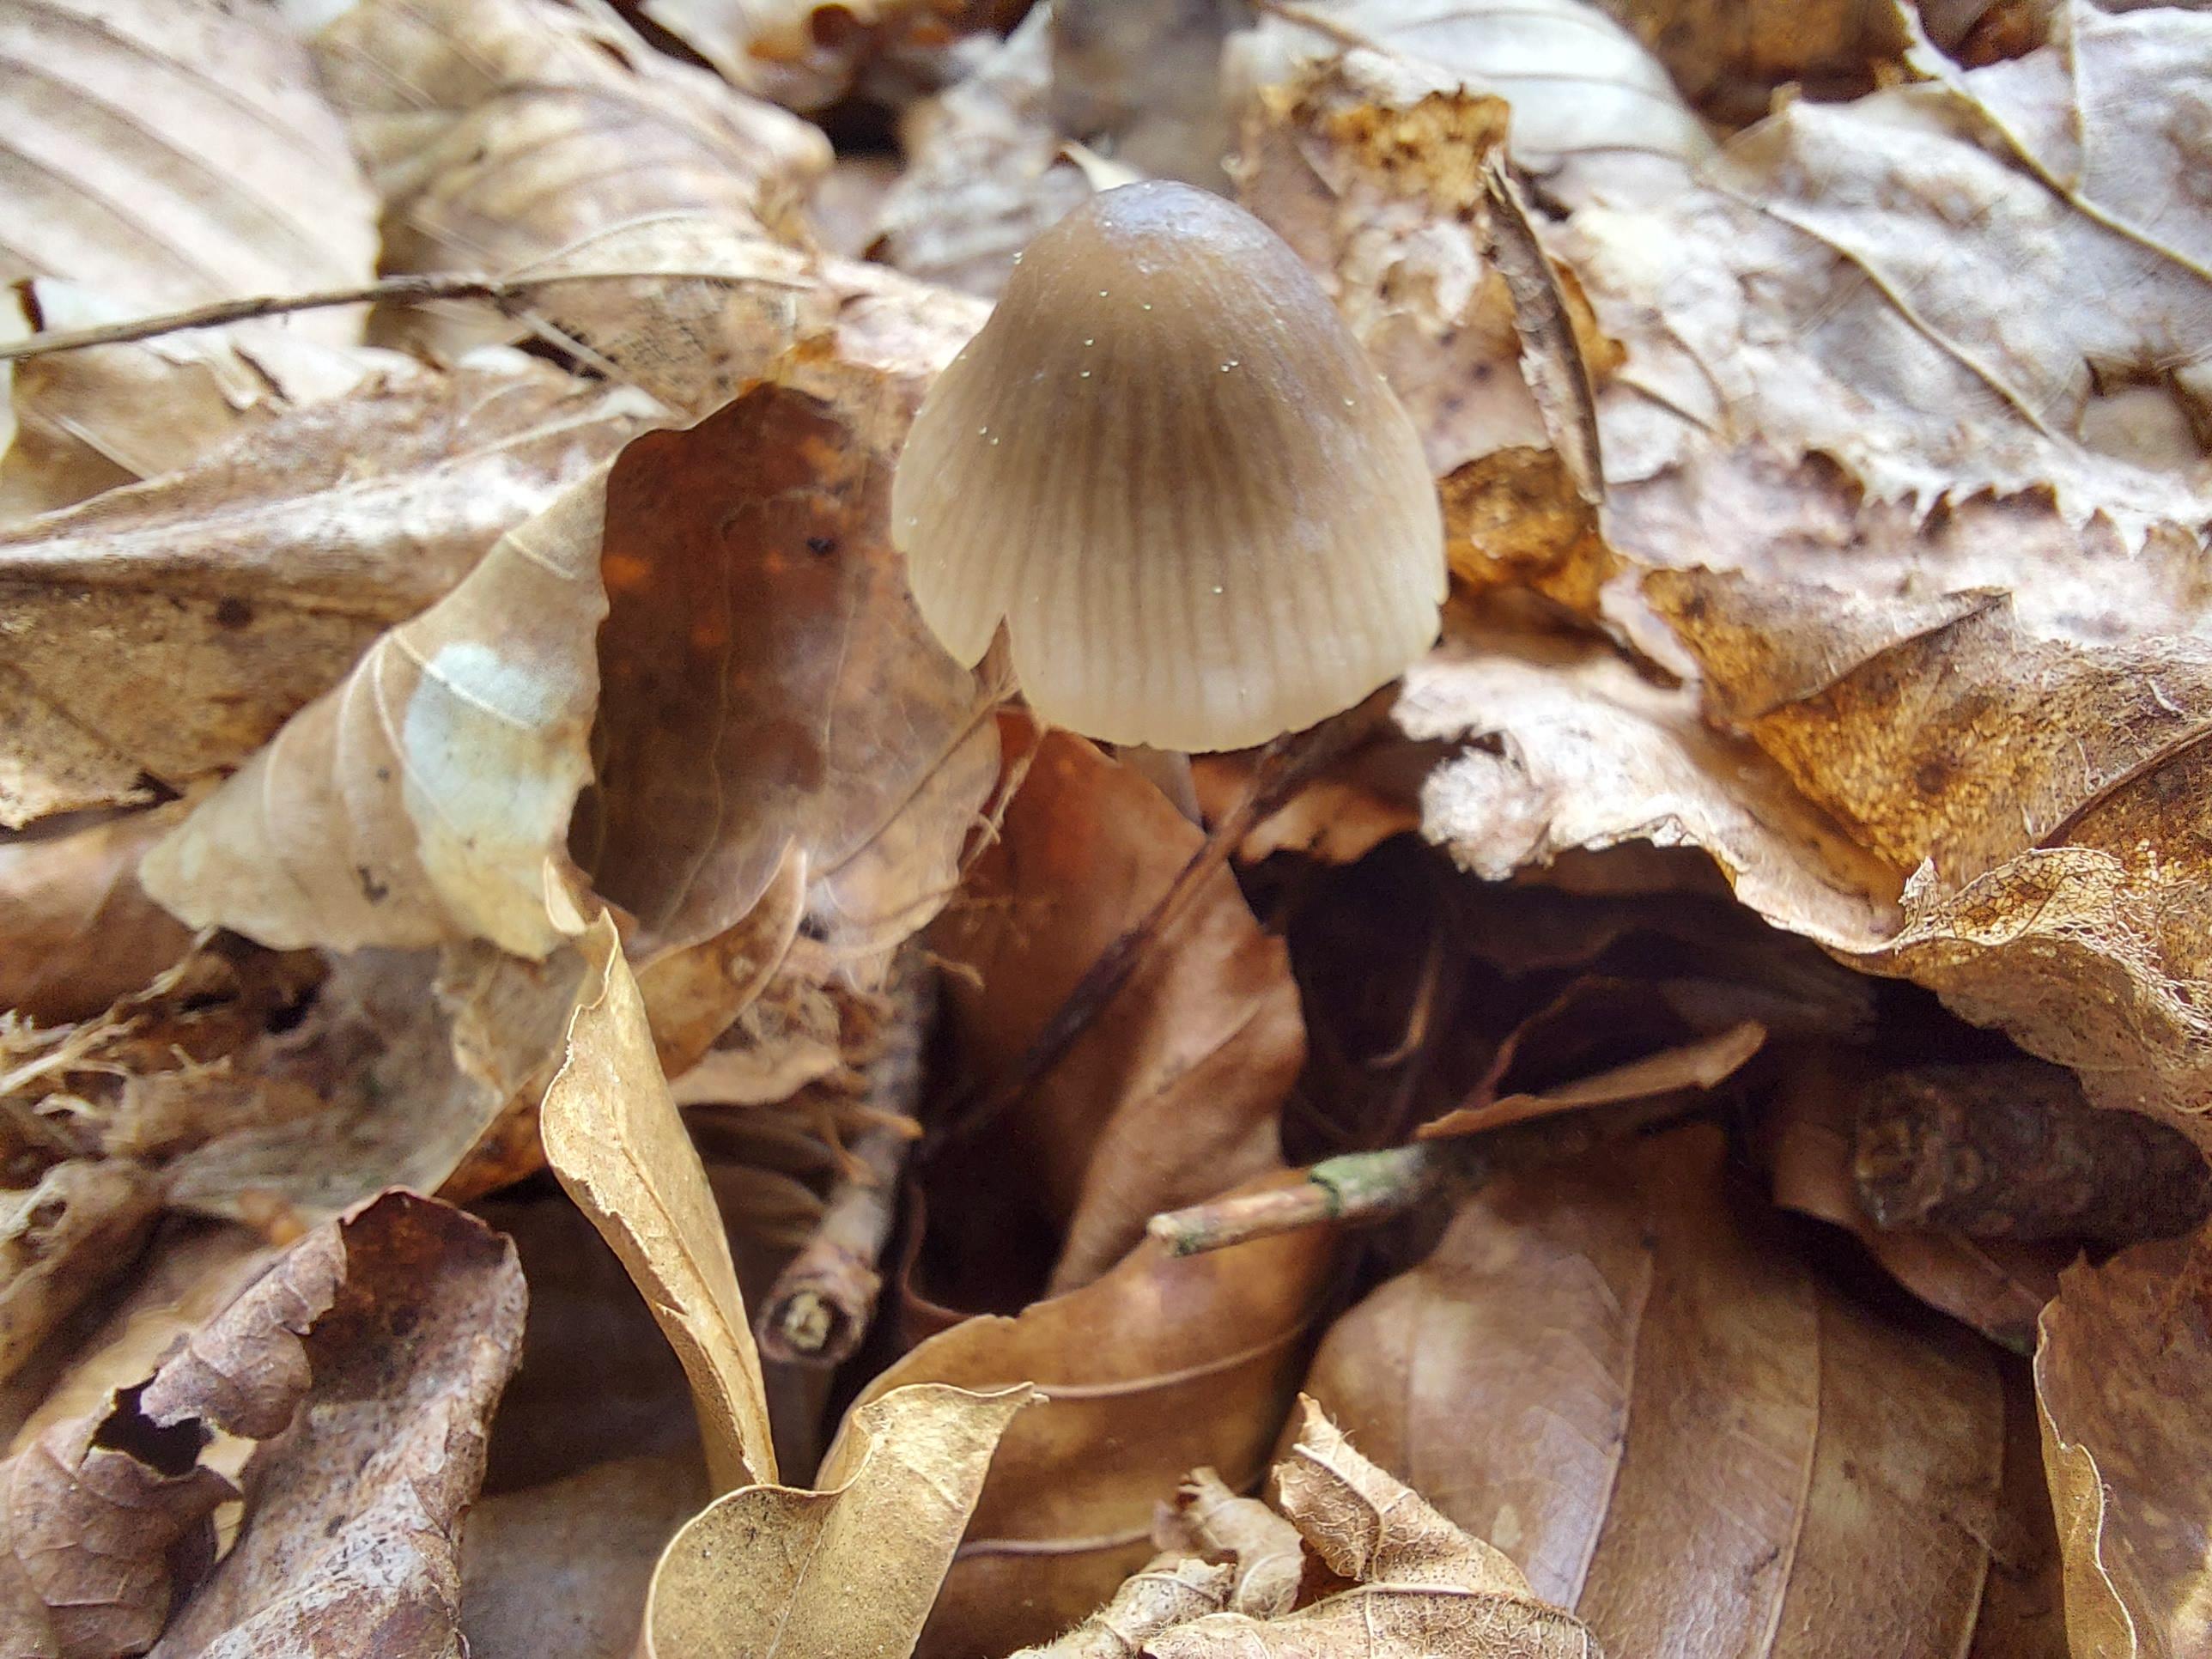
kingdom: Fungi
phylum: Basidiomycota
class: Agaricomycetes
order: Agaricales
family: Mycenaceae
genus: Mycena
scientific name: Mycena
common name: huesvamp
